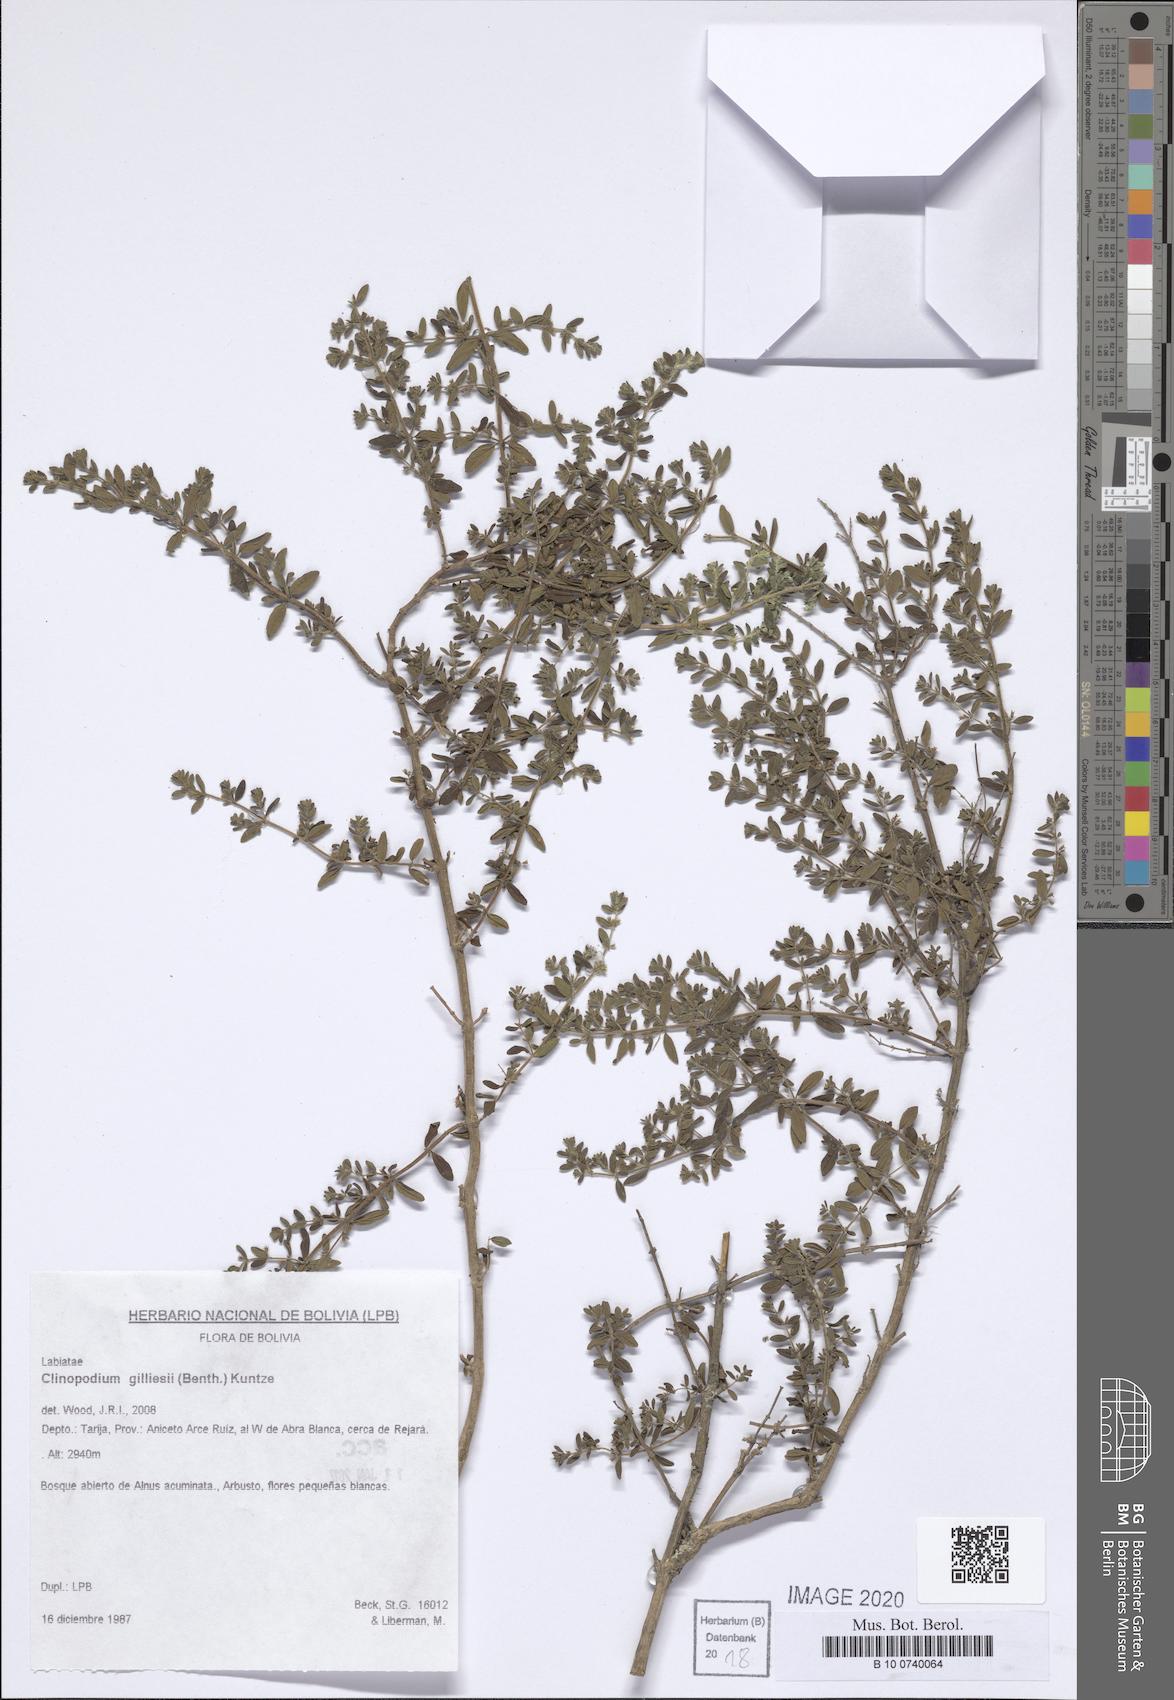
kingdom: Plantae
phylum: Tracheophyta
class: Magnoliopsida
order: Lamiales
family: Lamiaceae
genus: Clinopodium
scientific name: Clinopodium gilliesii
